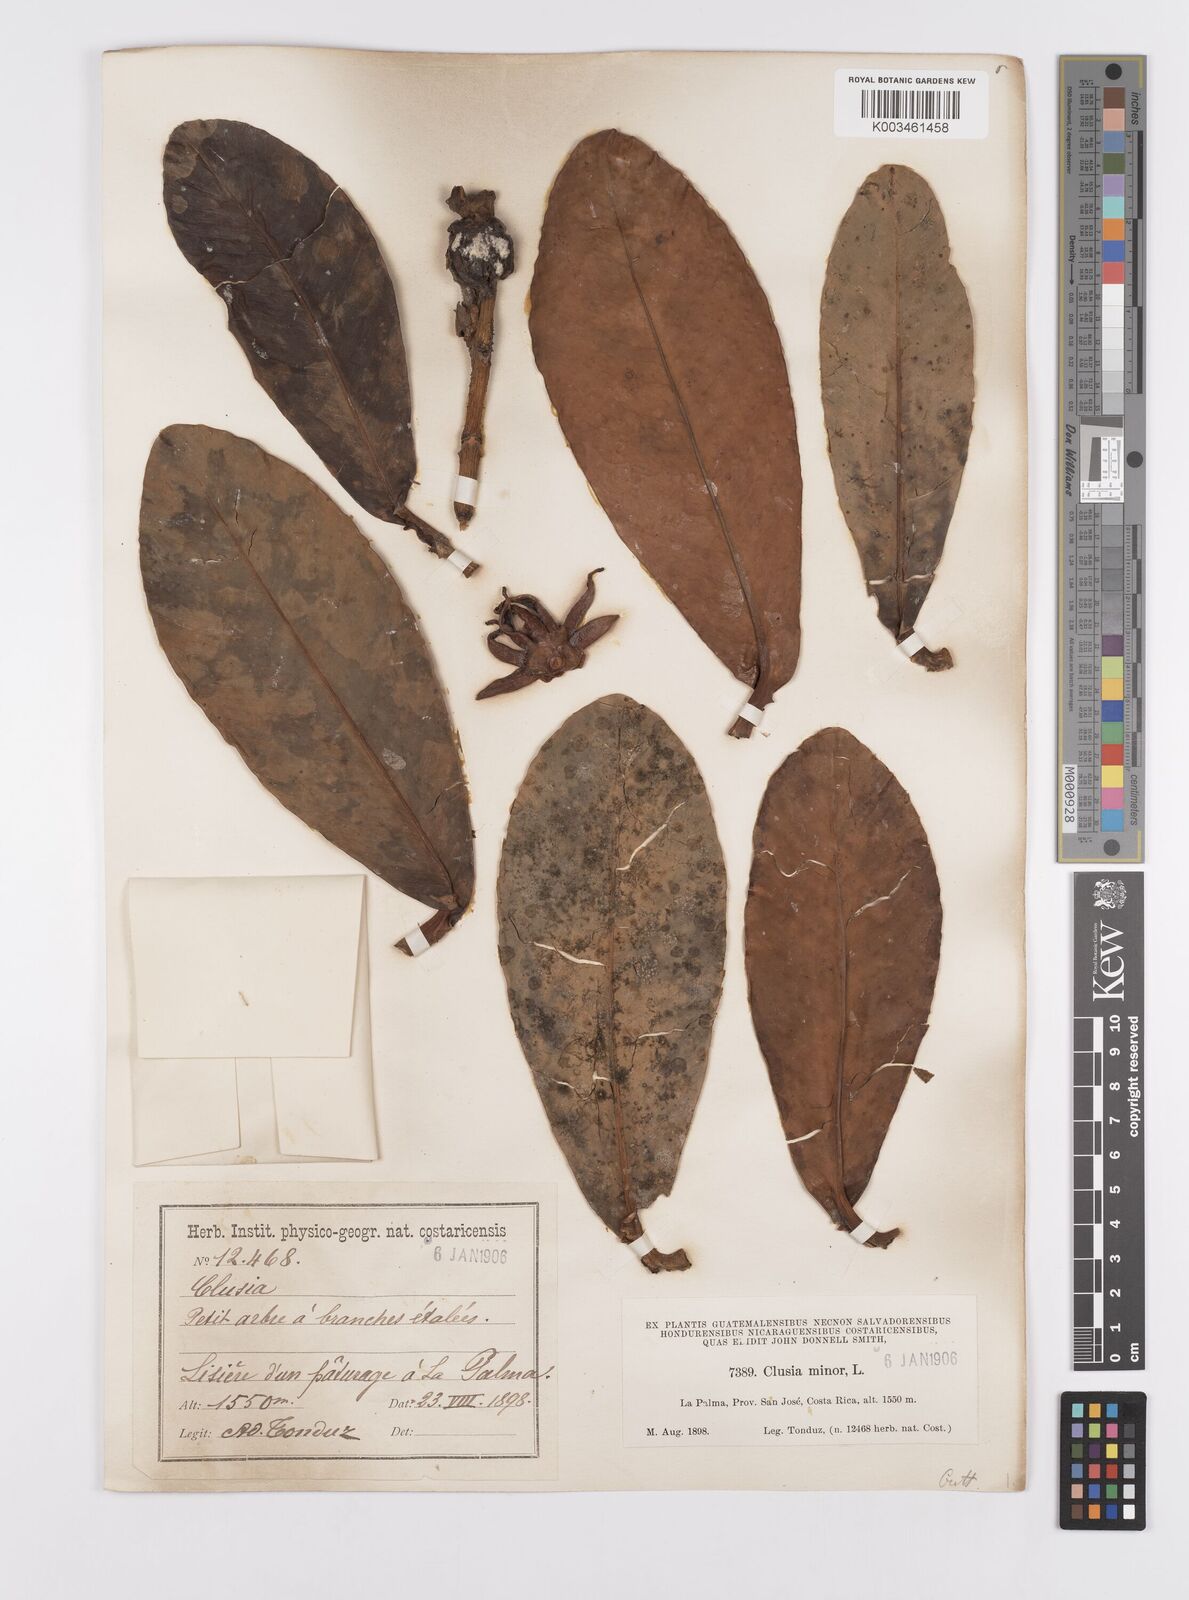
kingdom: Plantae
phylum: Tracheophyta
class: Magnoliopsida
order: Malpighiales
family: Clusiaceae
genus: Clusia
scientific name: Clusia minor
